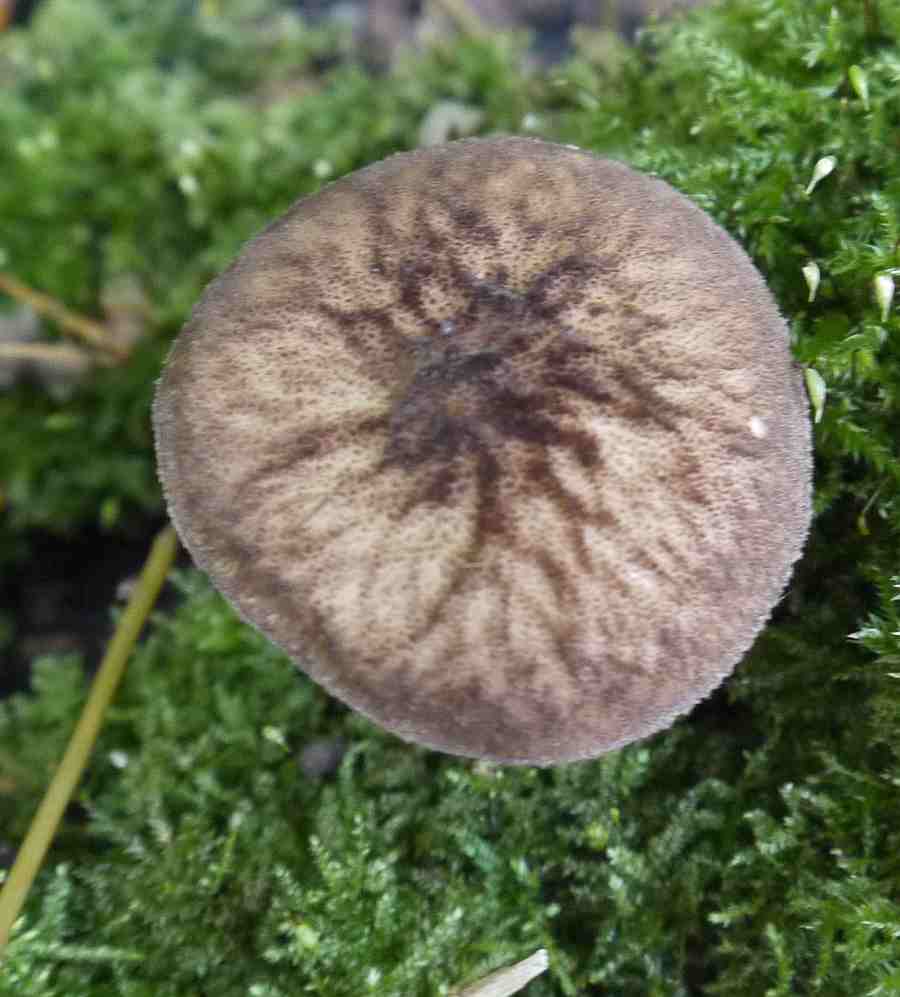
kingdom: Fungi
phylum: Basidiomycota
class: Agaricomycetes
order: Agaricales
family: Pluteaceae
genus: Pluteus
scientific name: Pluteus umbrosus
